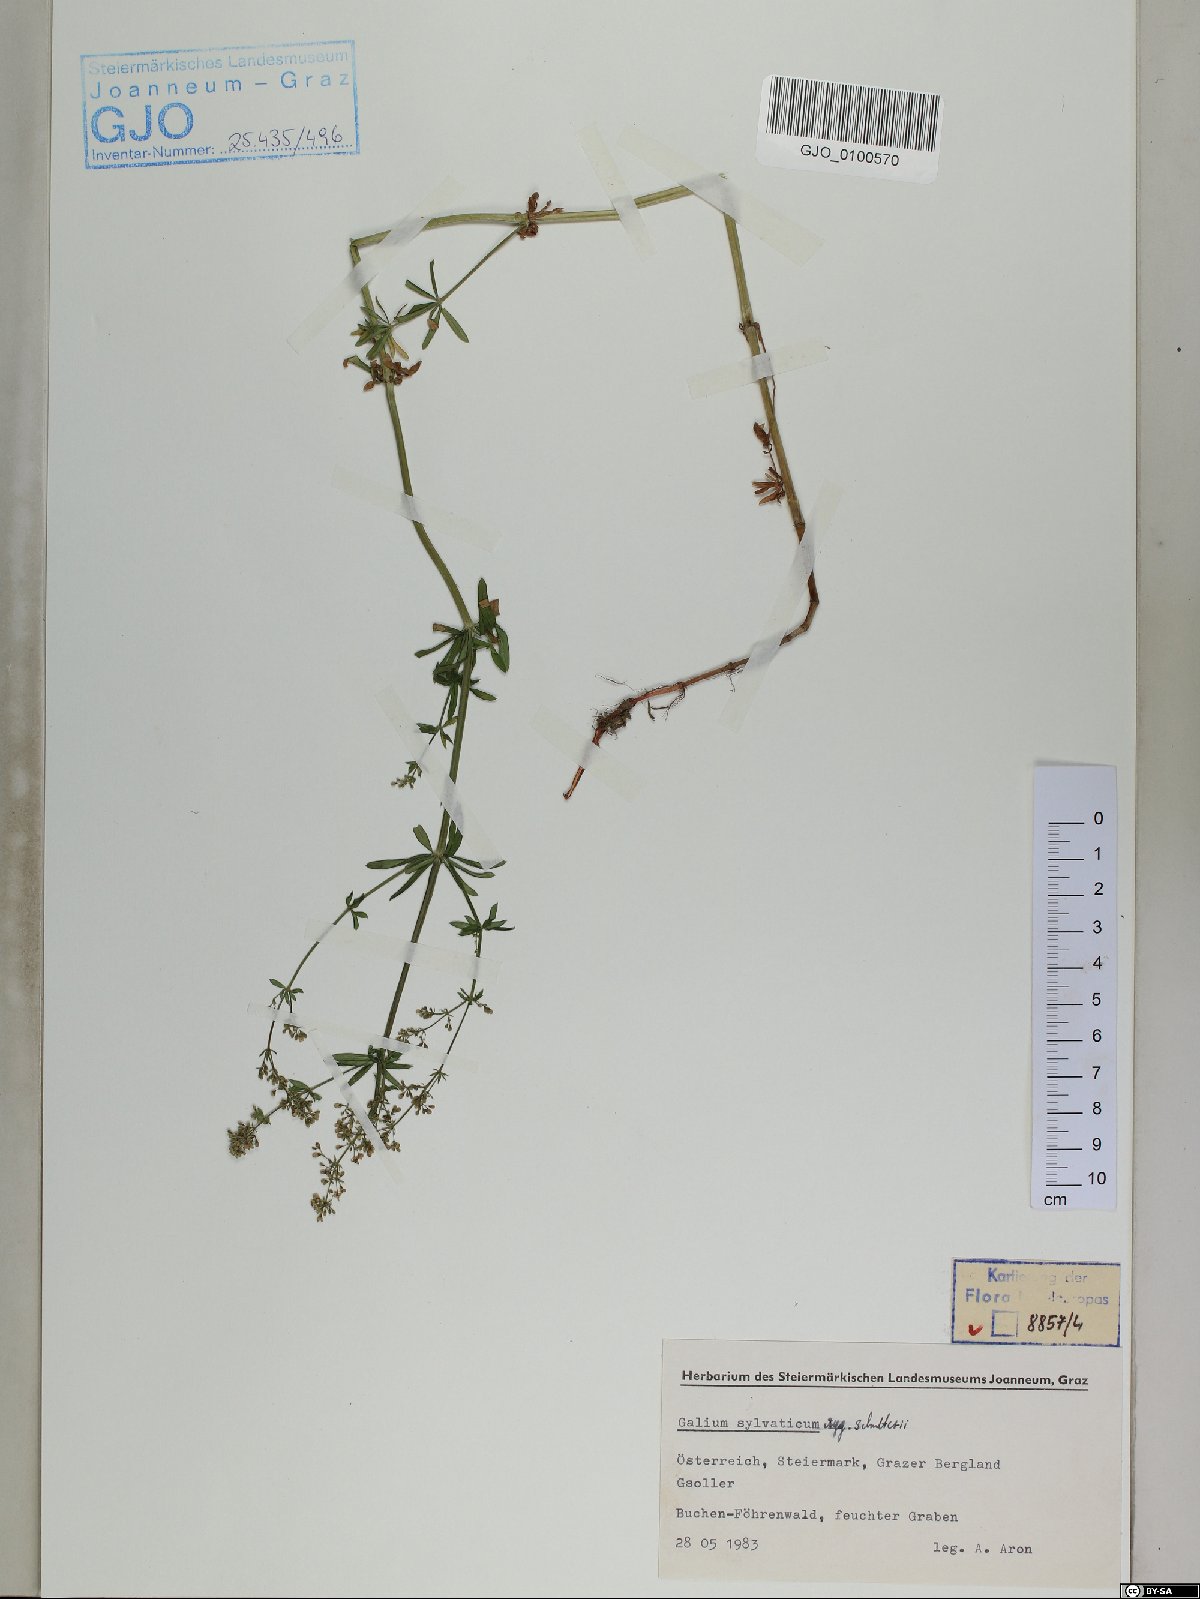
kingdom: Plantae
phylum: Tracheophyta
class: Magnoliopsida
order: Gentianales
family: Rubiaceae
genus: Galium
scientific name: Galium intermedium
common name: Bedstraw
